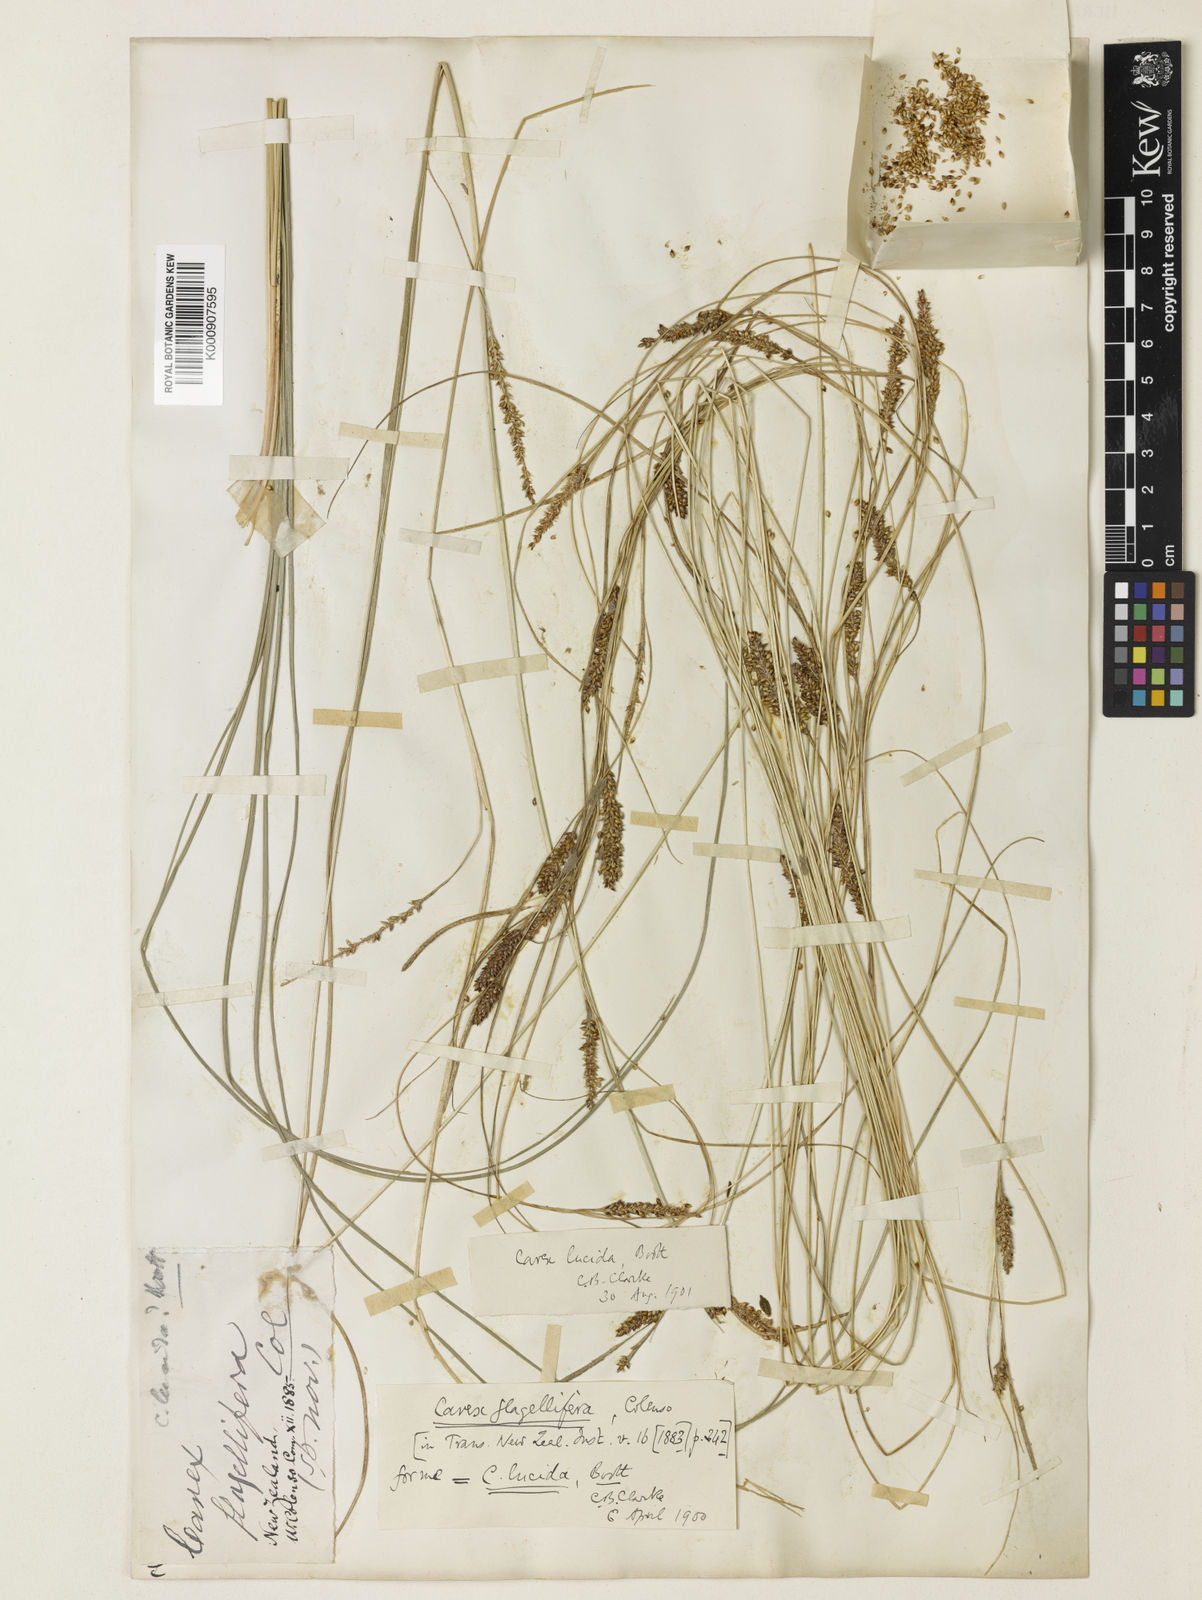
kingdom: Plantae
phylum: Tracheophyta
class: Liliopsida
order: Poales
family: Cyperaceae
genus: Carex
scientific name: Carex devia
